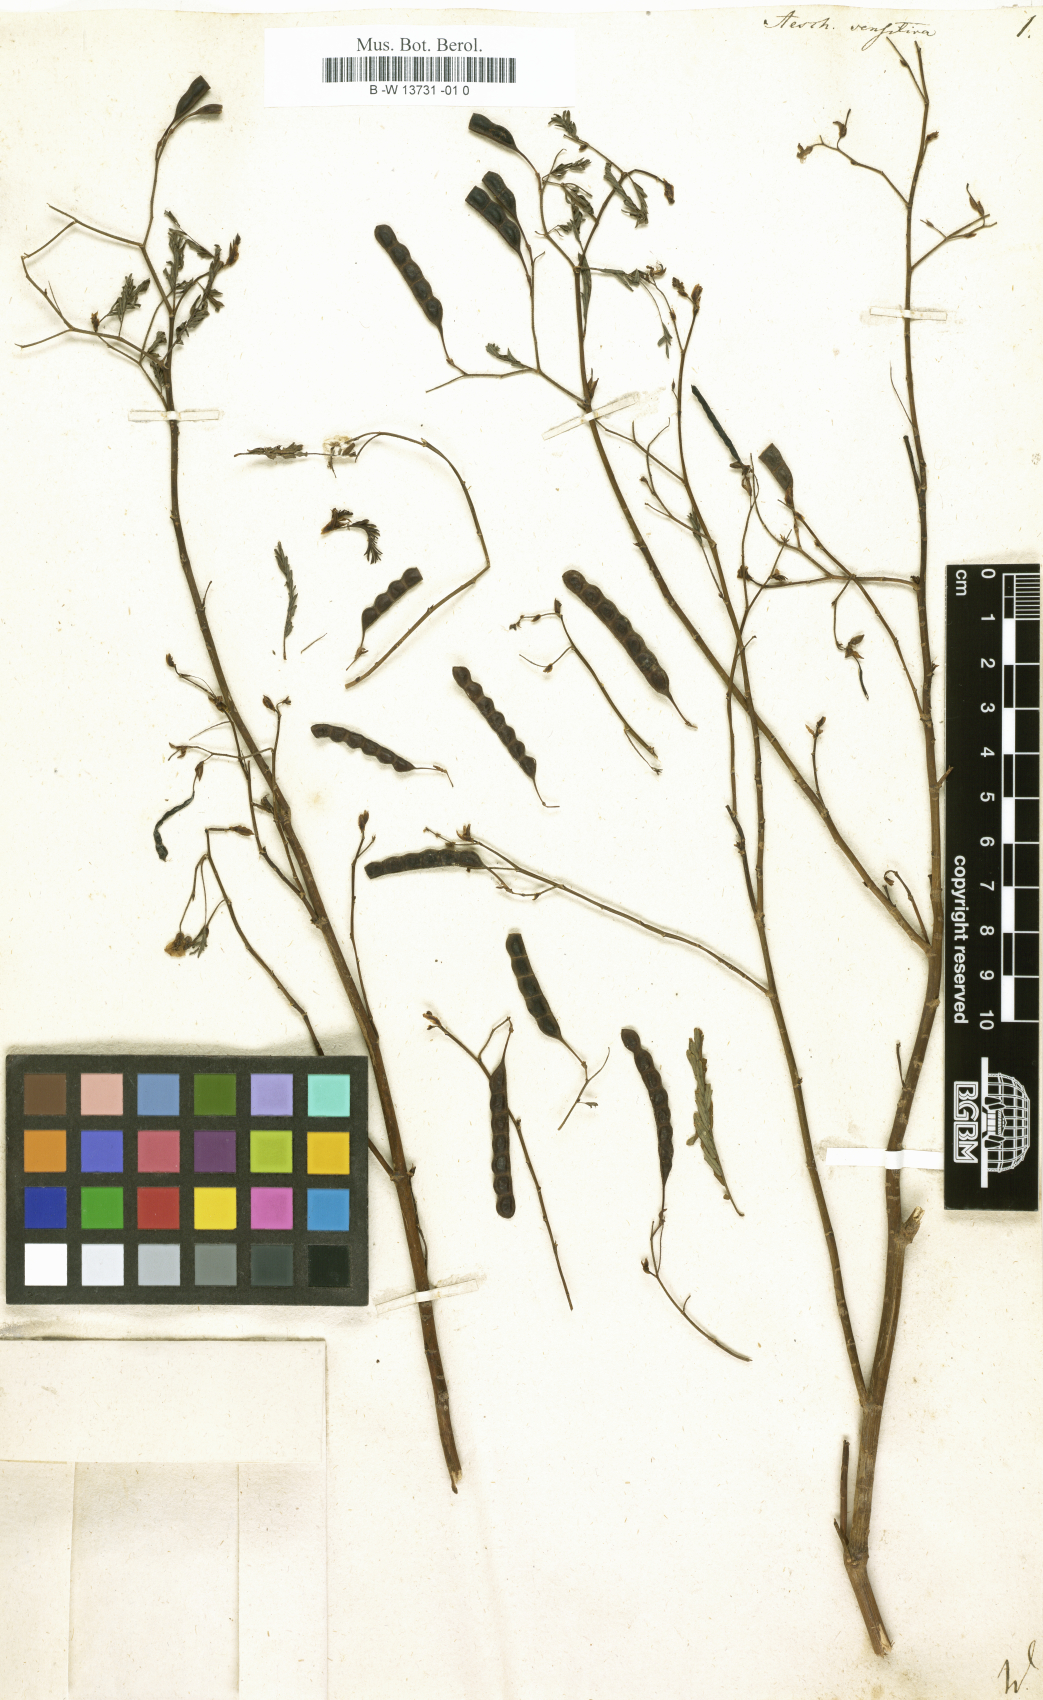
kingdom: Plantae
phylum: Tracheophyta
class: Magnoliopsida
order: Fabales
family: Fabaceae
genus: Aeschynomene
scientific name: Aeschynomene sensitiva
